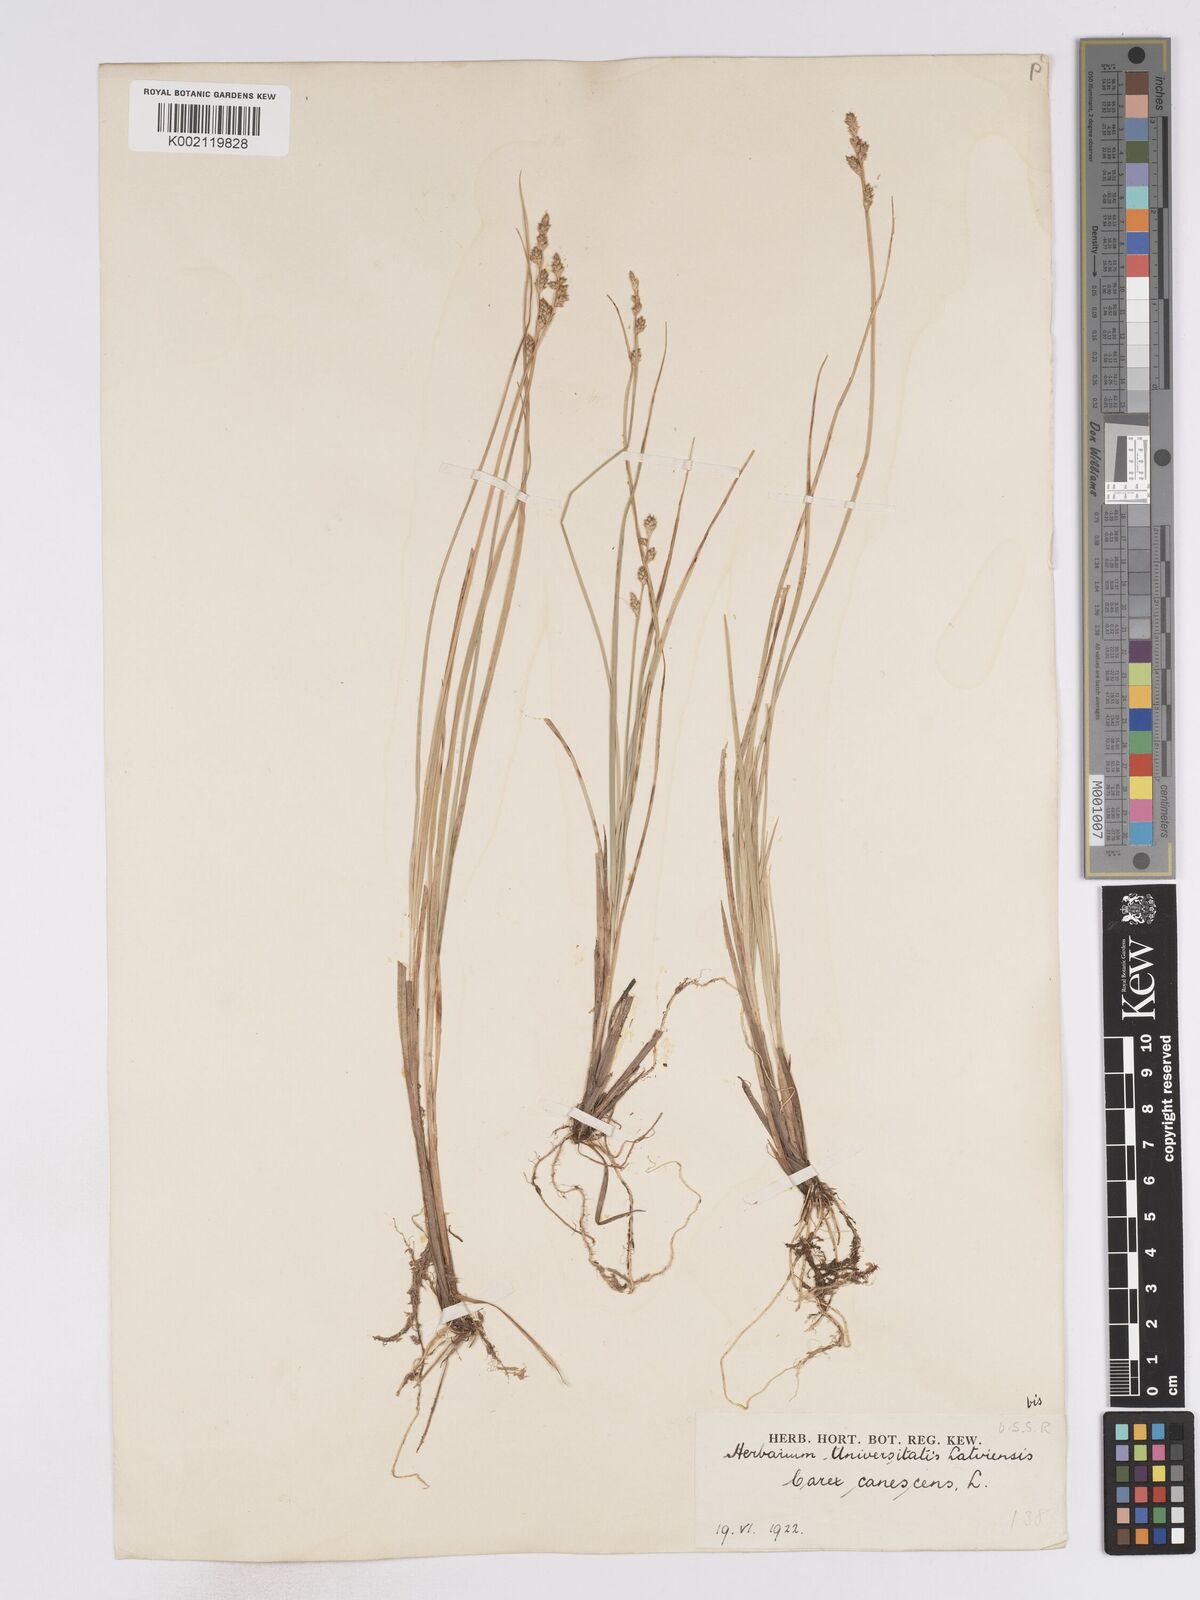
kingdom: Plantae
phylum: Tracheophyta
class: Liliopsida
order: Poales
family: Cyperaceae
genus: Carex
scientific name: Carex curta
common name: White sedge
